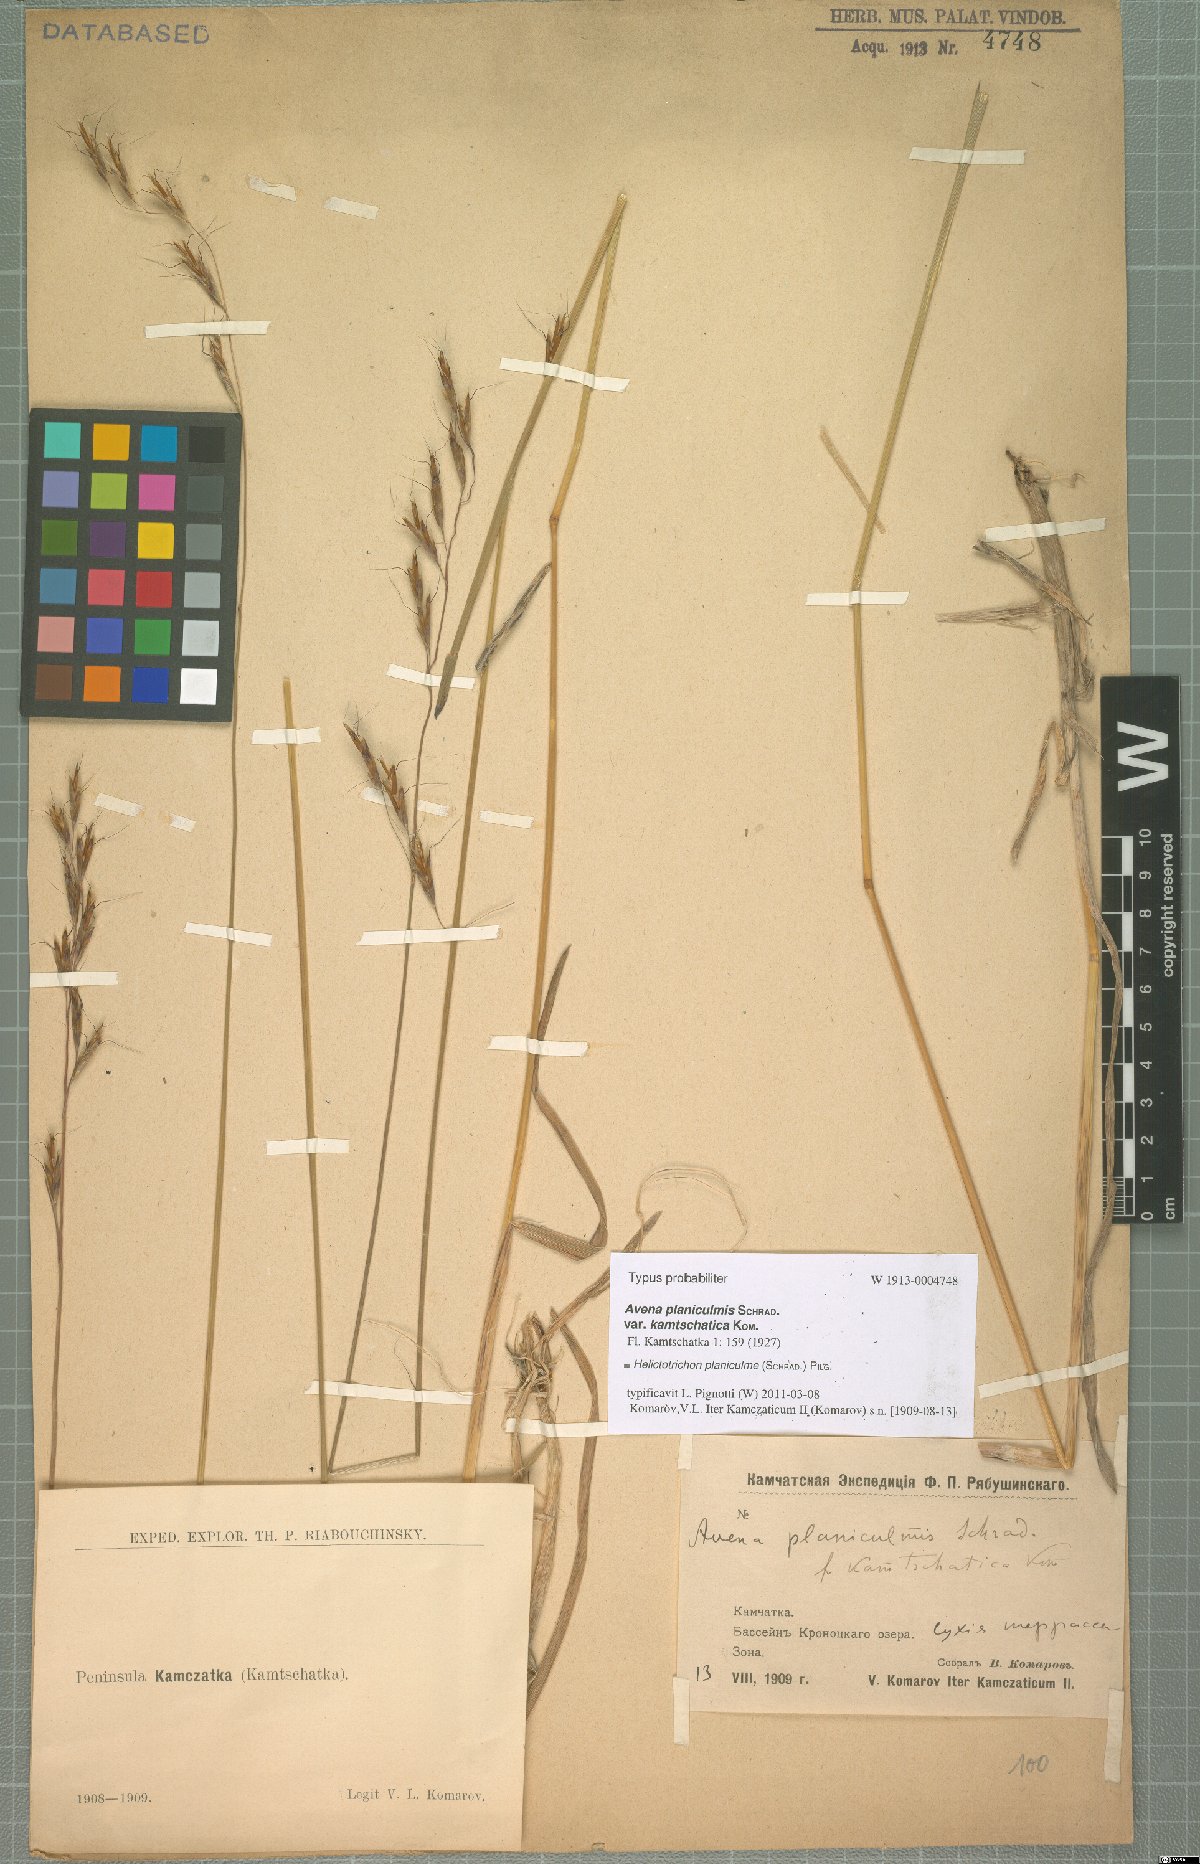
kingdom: Plantae
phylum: Tracheophyta
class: Liliopsida
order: Poales
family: Poaceae
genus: Helictochloa
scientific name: Helictochloa planiculmis
